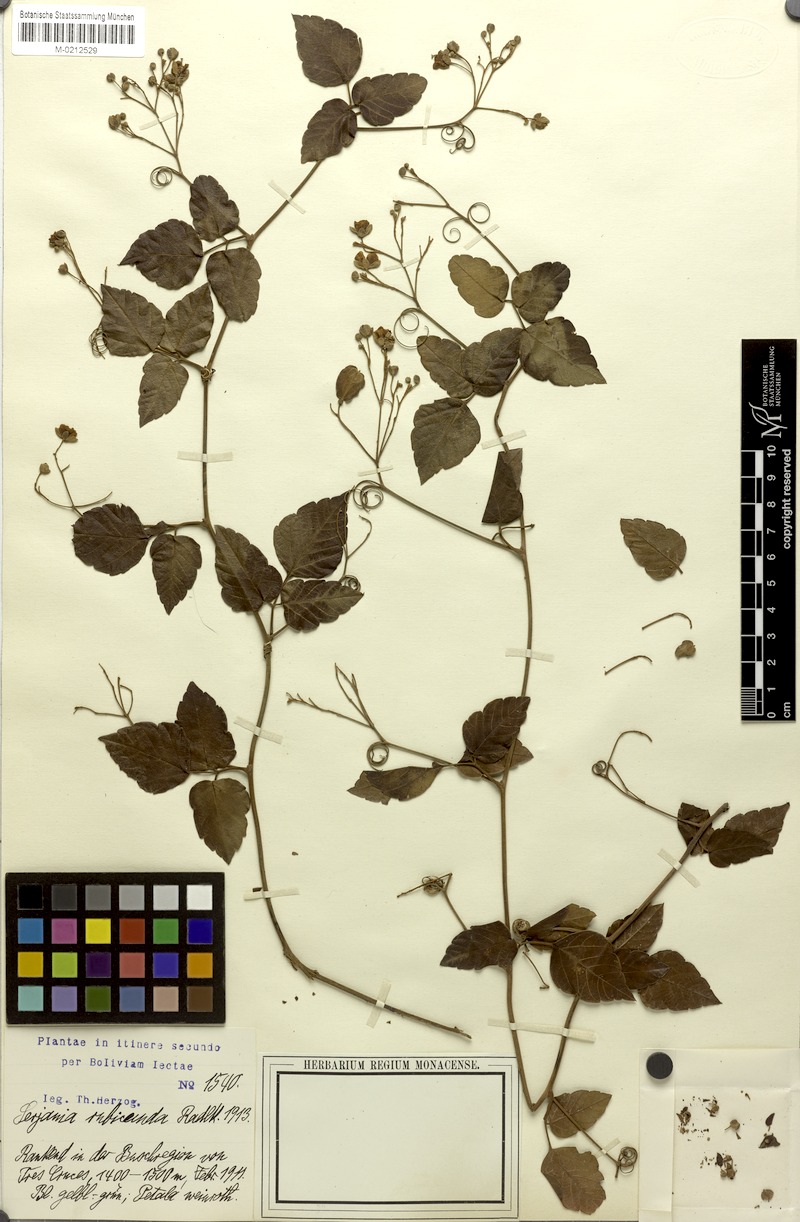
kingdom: Plantae
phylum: Tracheophyta
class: Magnoliopsida
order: Sapindales
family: Sapindaceae
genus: Serjania
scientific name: Serjania rubicunda
